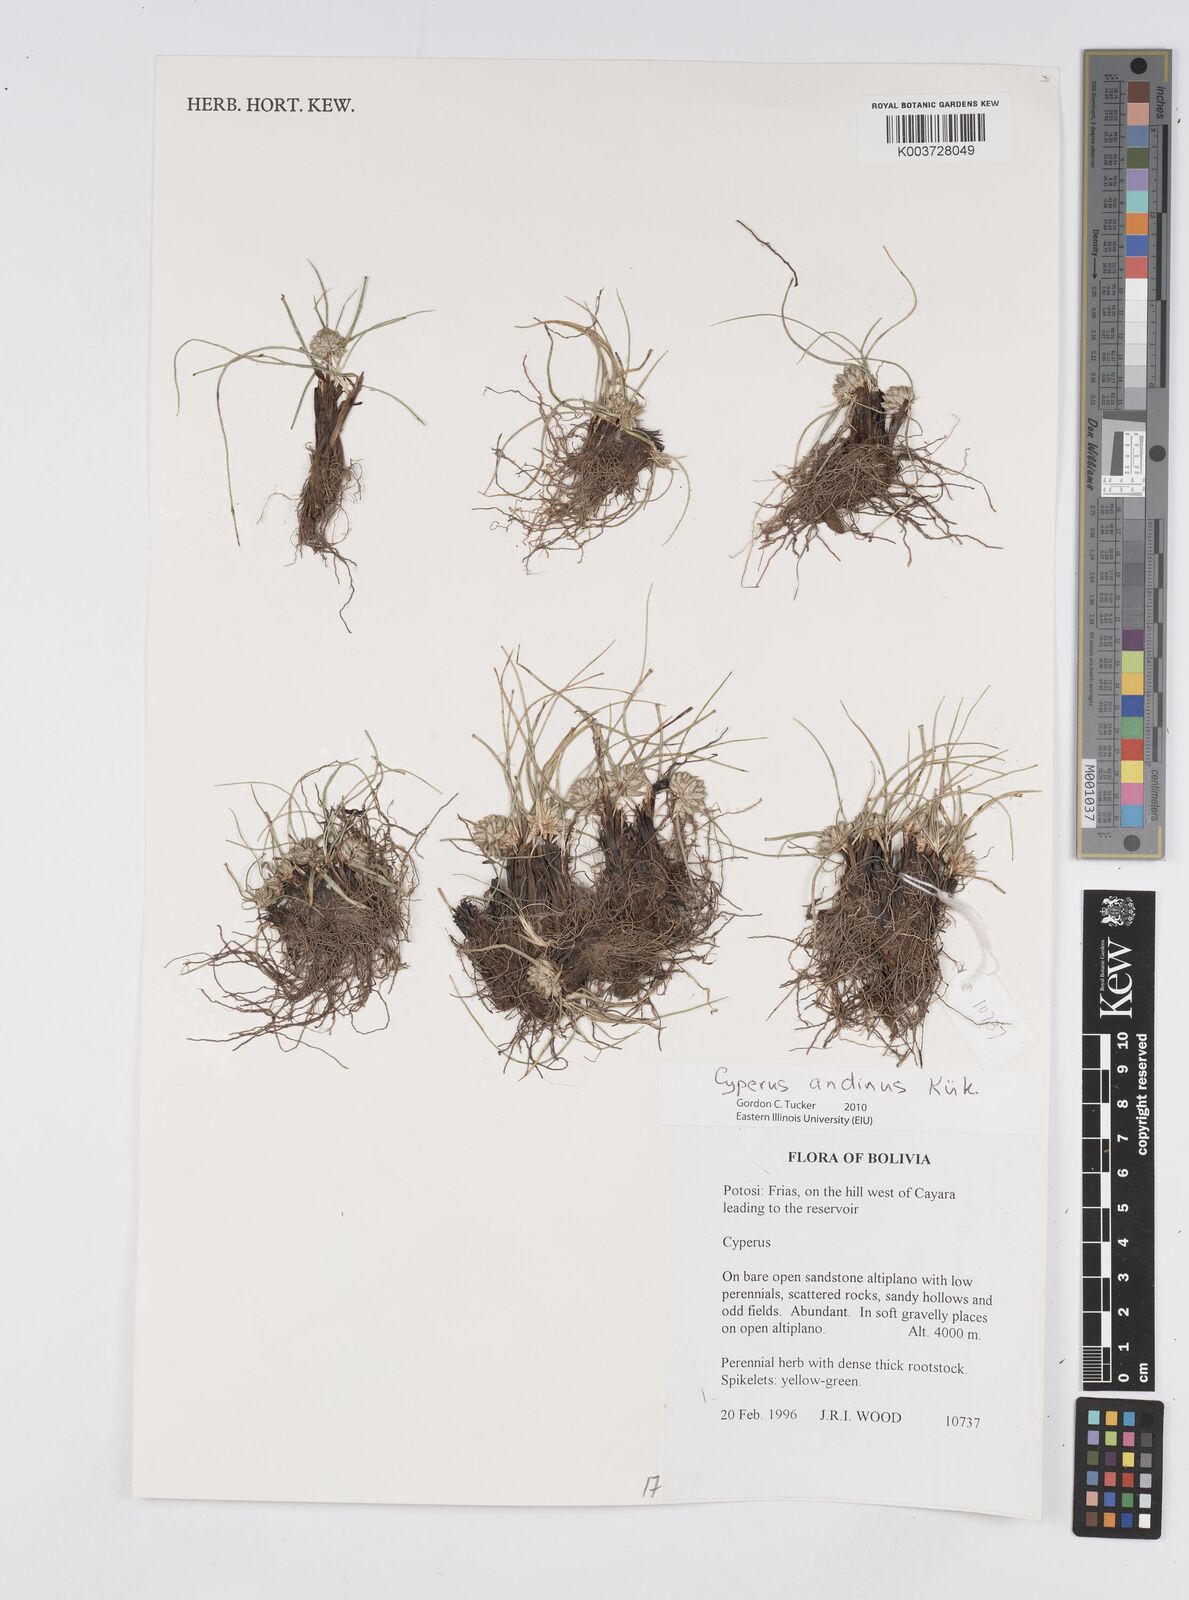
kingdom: Plantae
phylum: Tracheophyta
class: Liliopsida
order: Poales
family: Cyperaceae
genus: Cyperus
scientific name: Cyperus seslerioides
